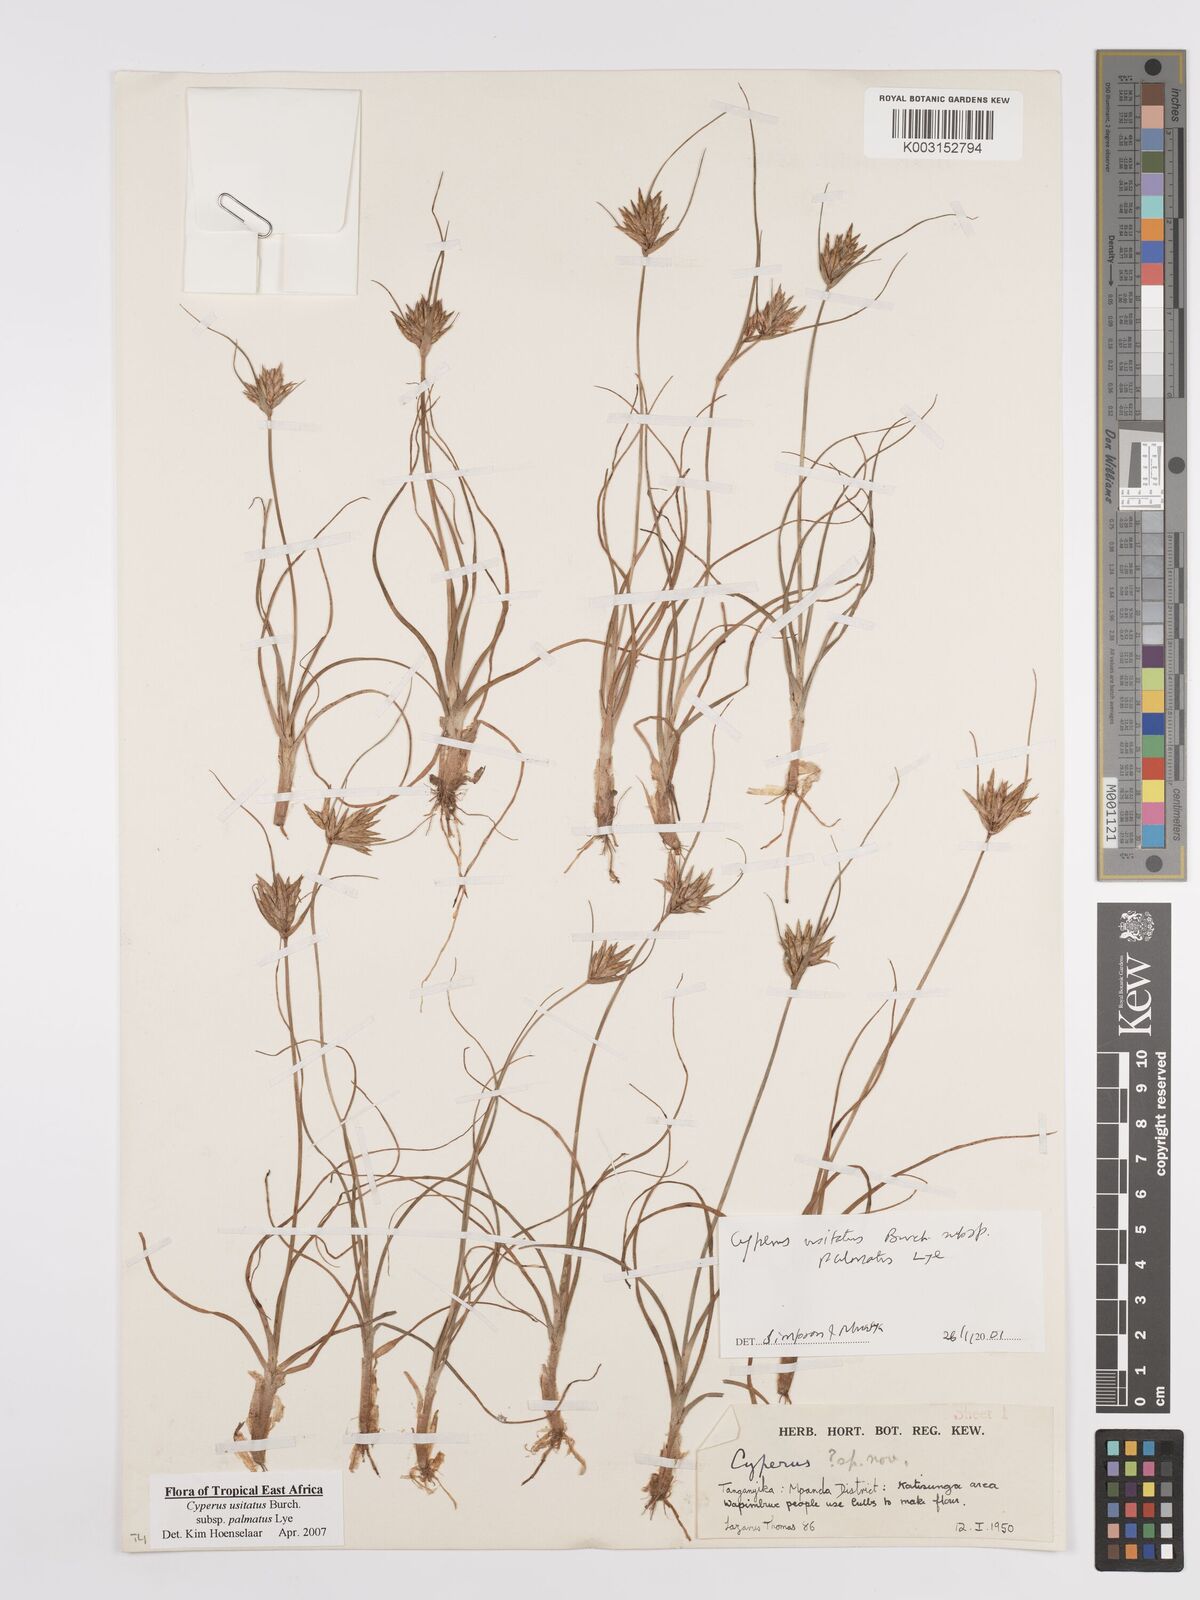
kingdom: Plantae
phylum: Tracheophyta
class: Liliopsida
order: Poales
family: Cyperaceae
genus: Cyperus
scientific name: Cyperus palmatus
